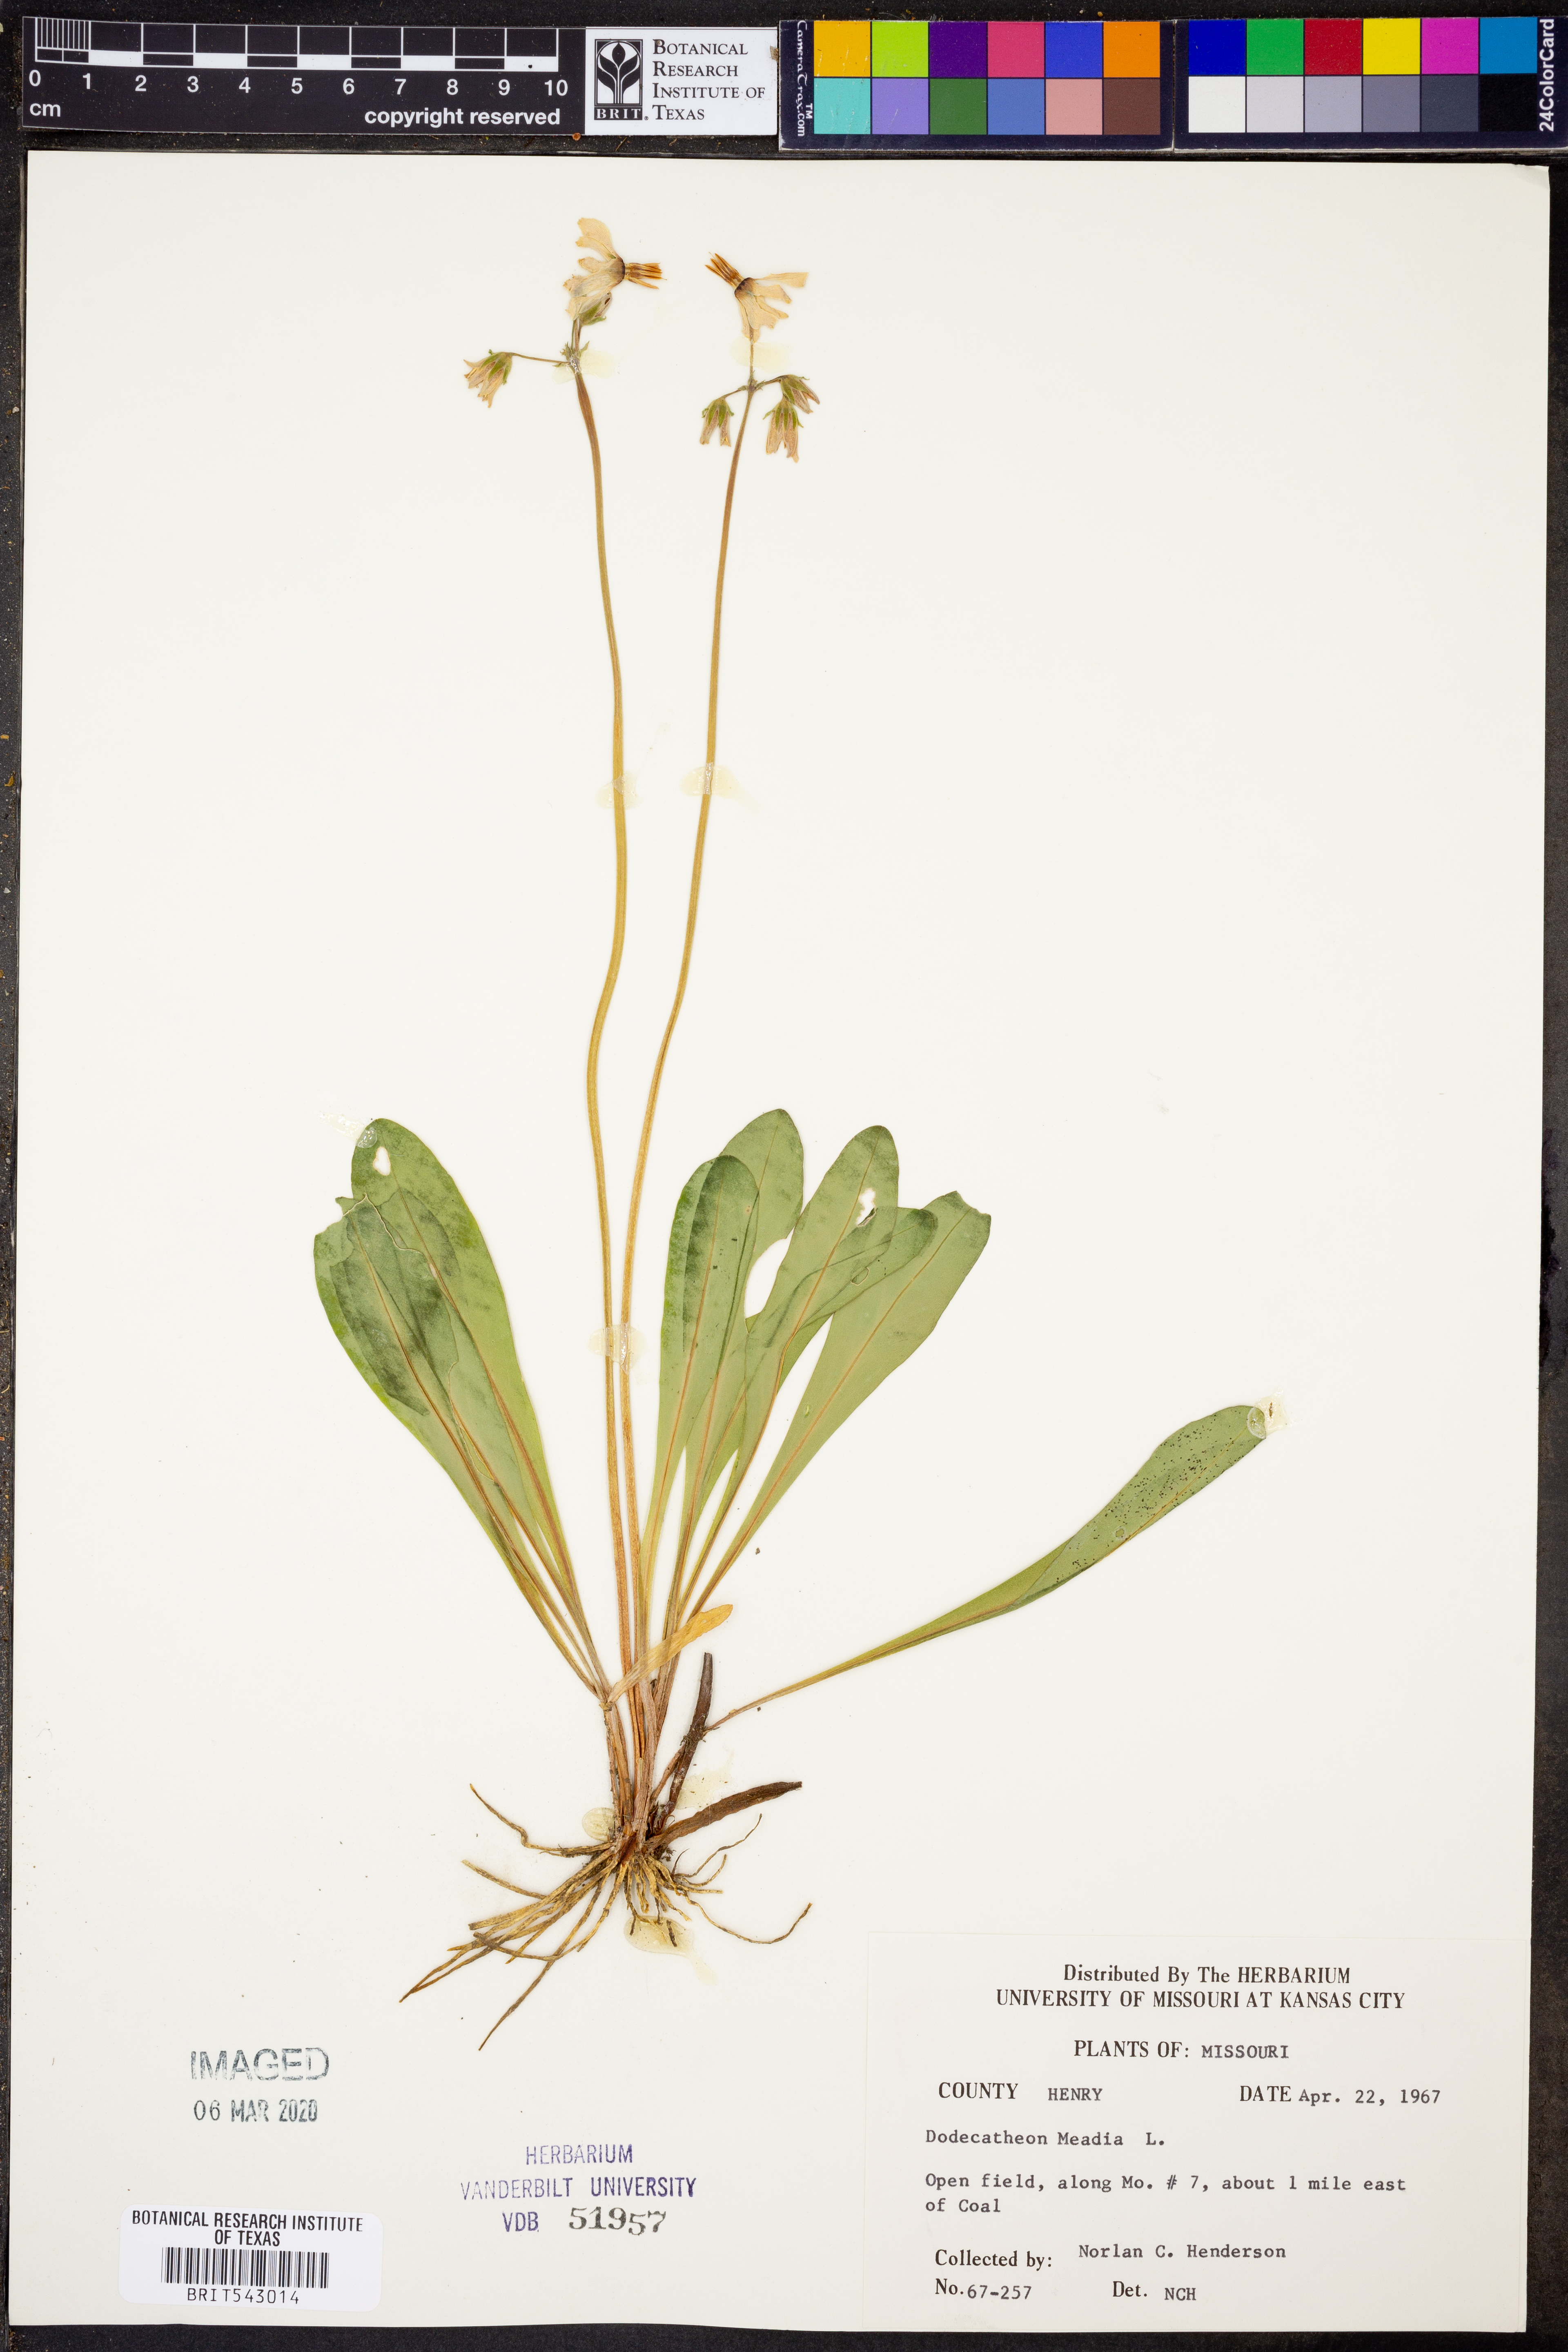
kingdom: Plantae
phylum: Tracheophyta
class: Magnoliopsida
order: Ericales
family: Primulaceae
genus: Dodecatheon
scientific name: Dodecatheon meadia
